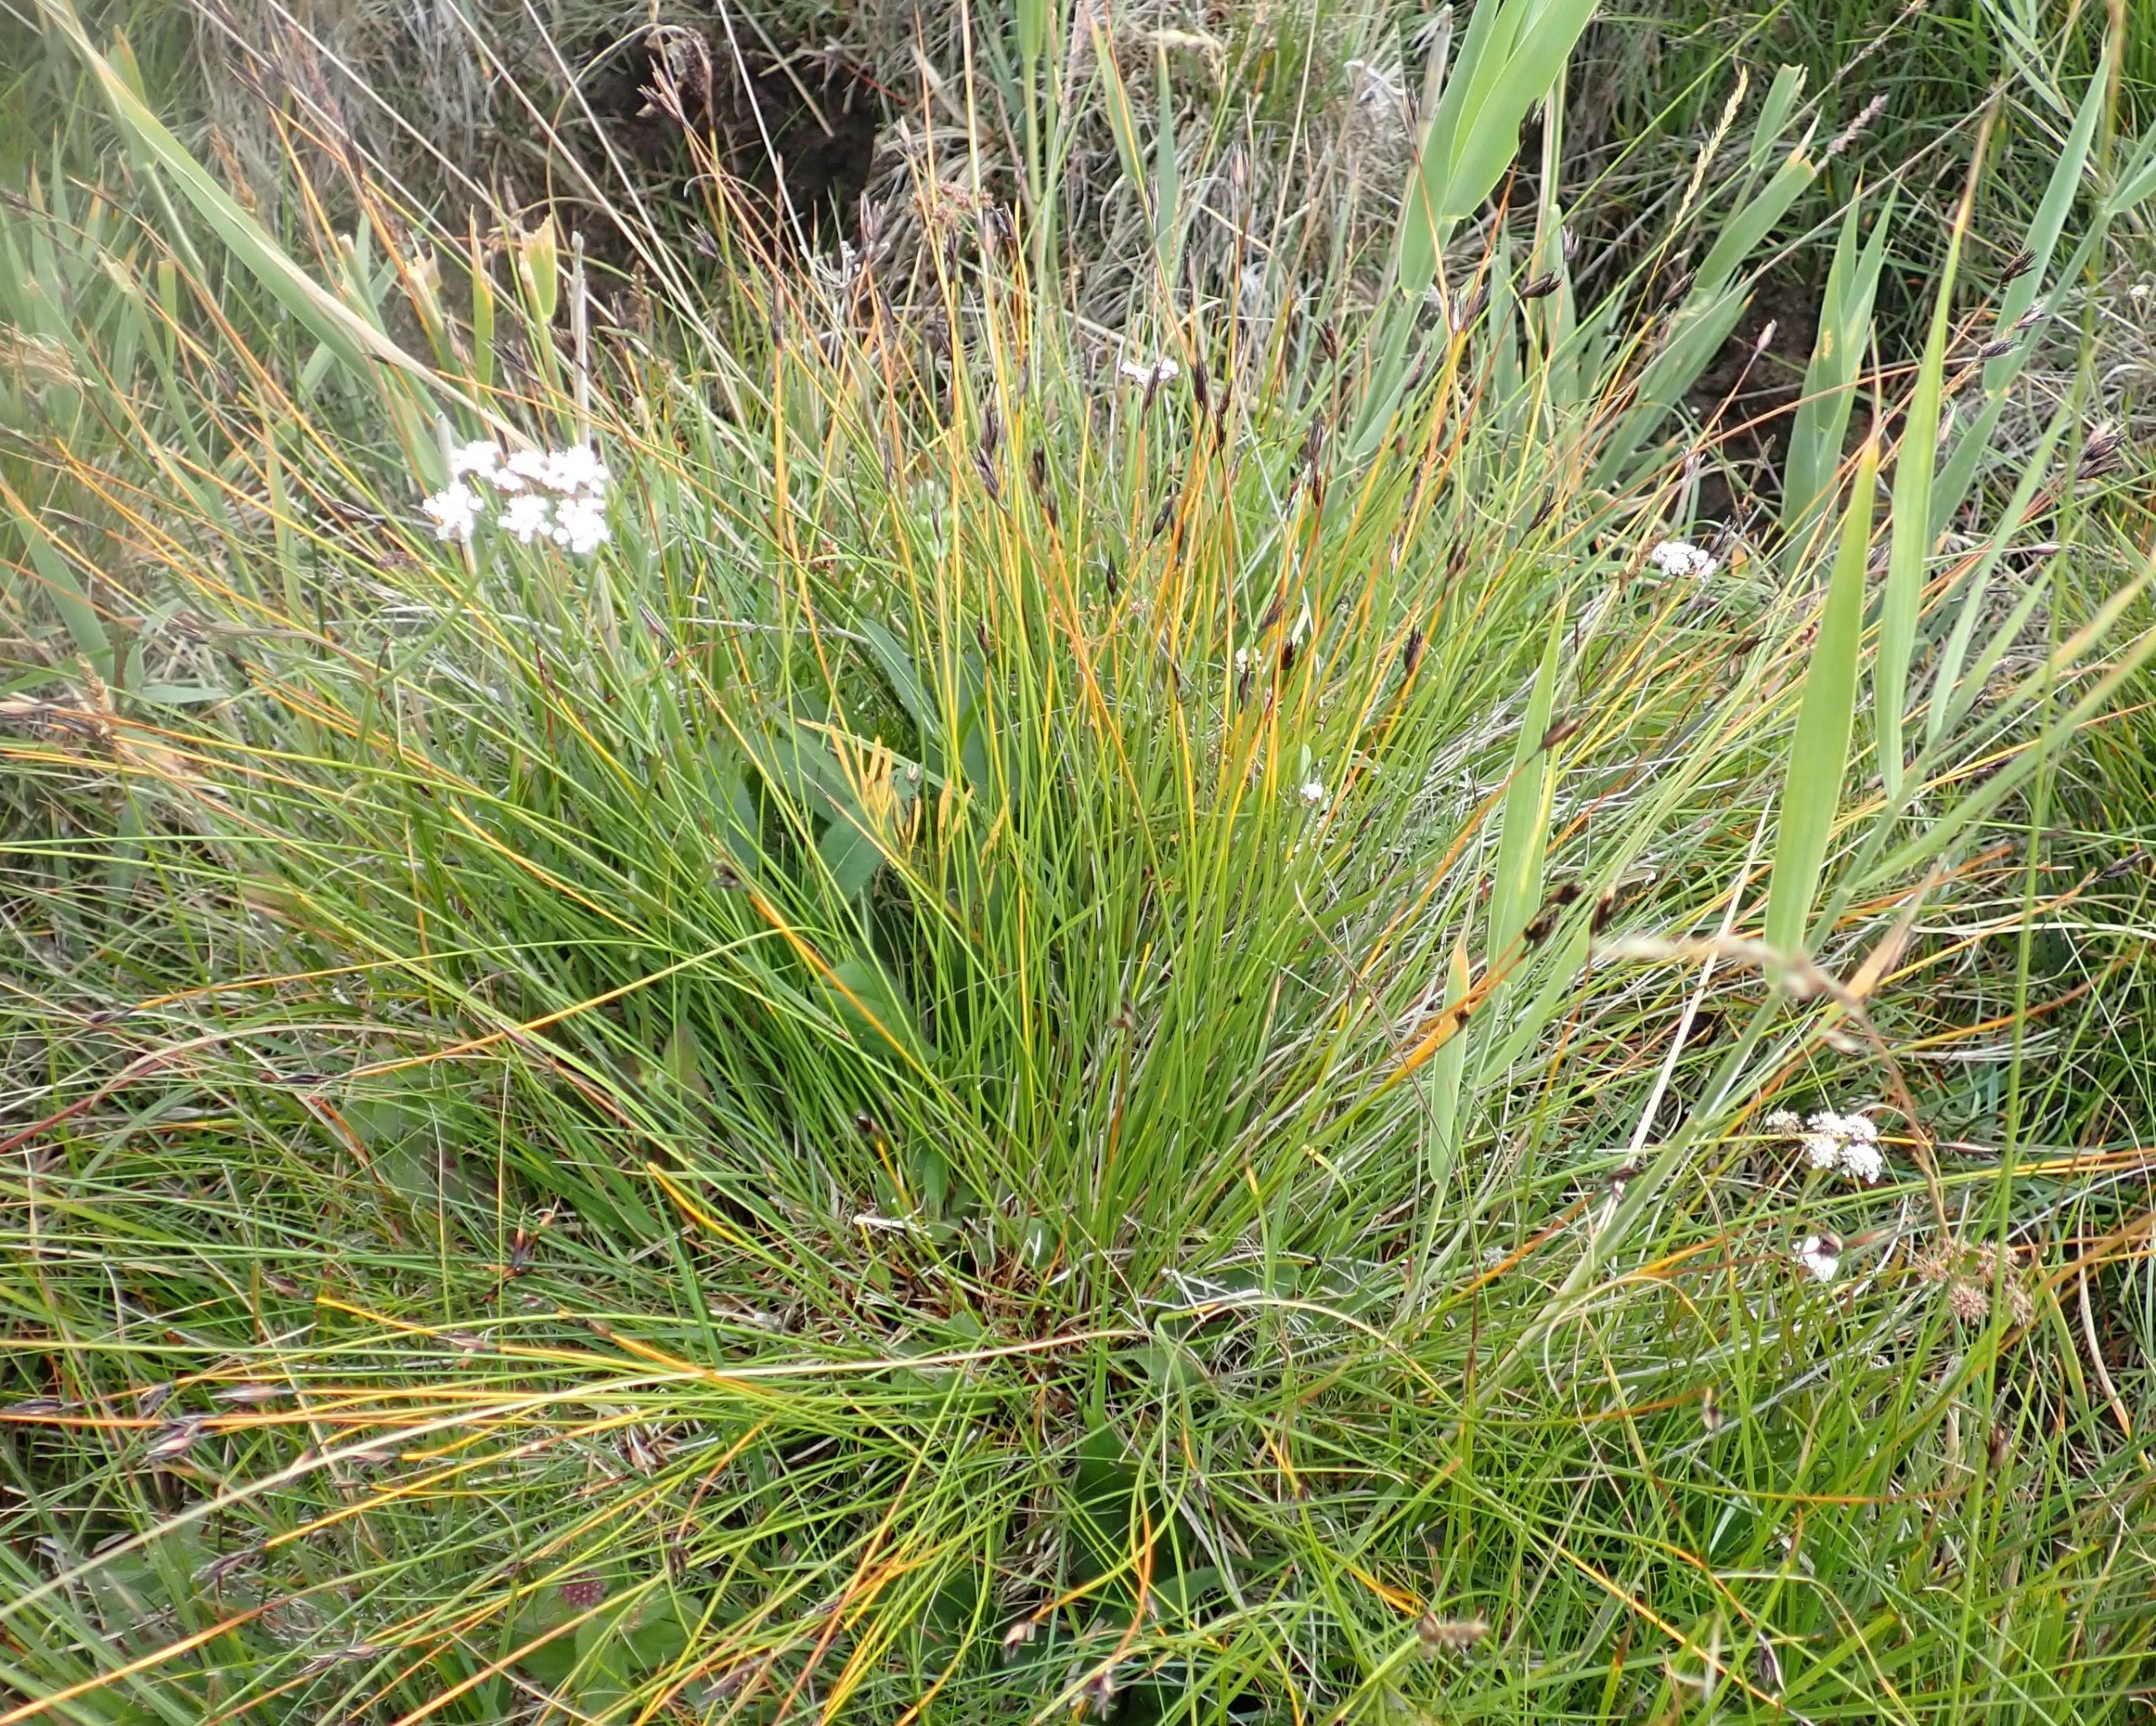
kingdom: Plantae
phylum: Tracheophyta
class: Liliopsida
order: Poales
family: Cyperaceae
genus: Schoenus
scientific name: Schoenus ferrugineus
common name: Rust-skæne
